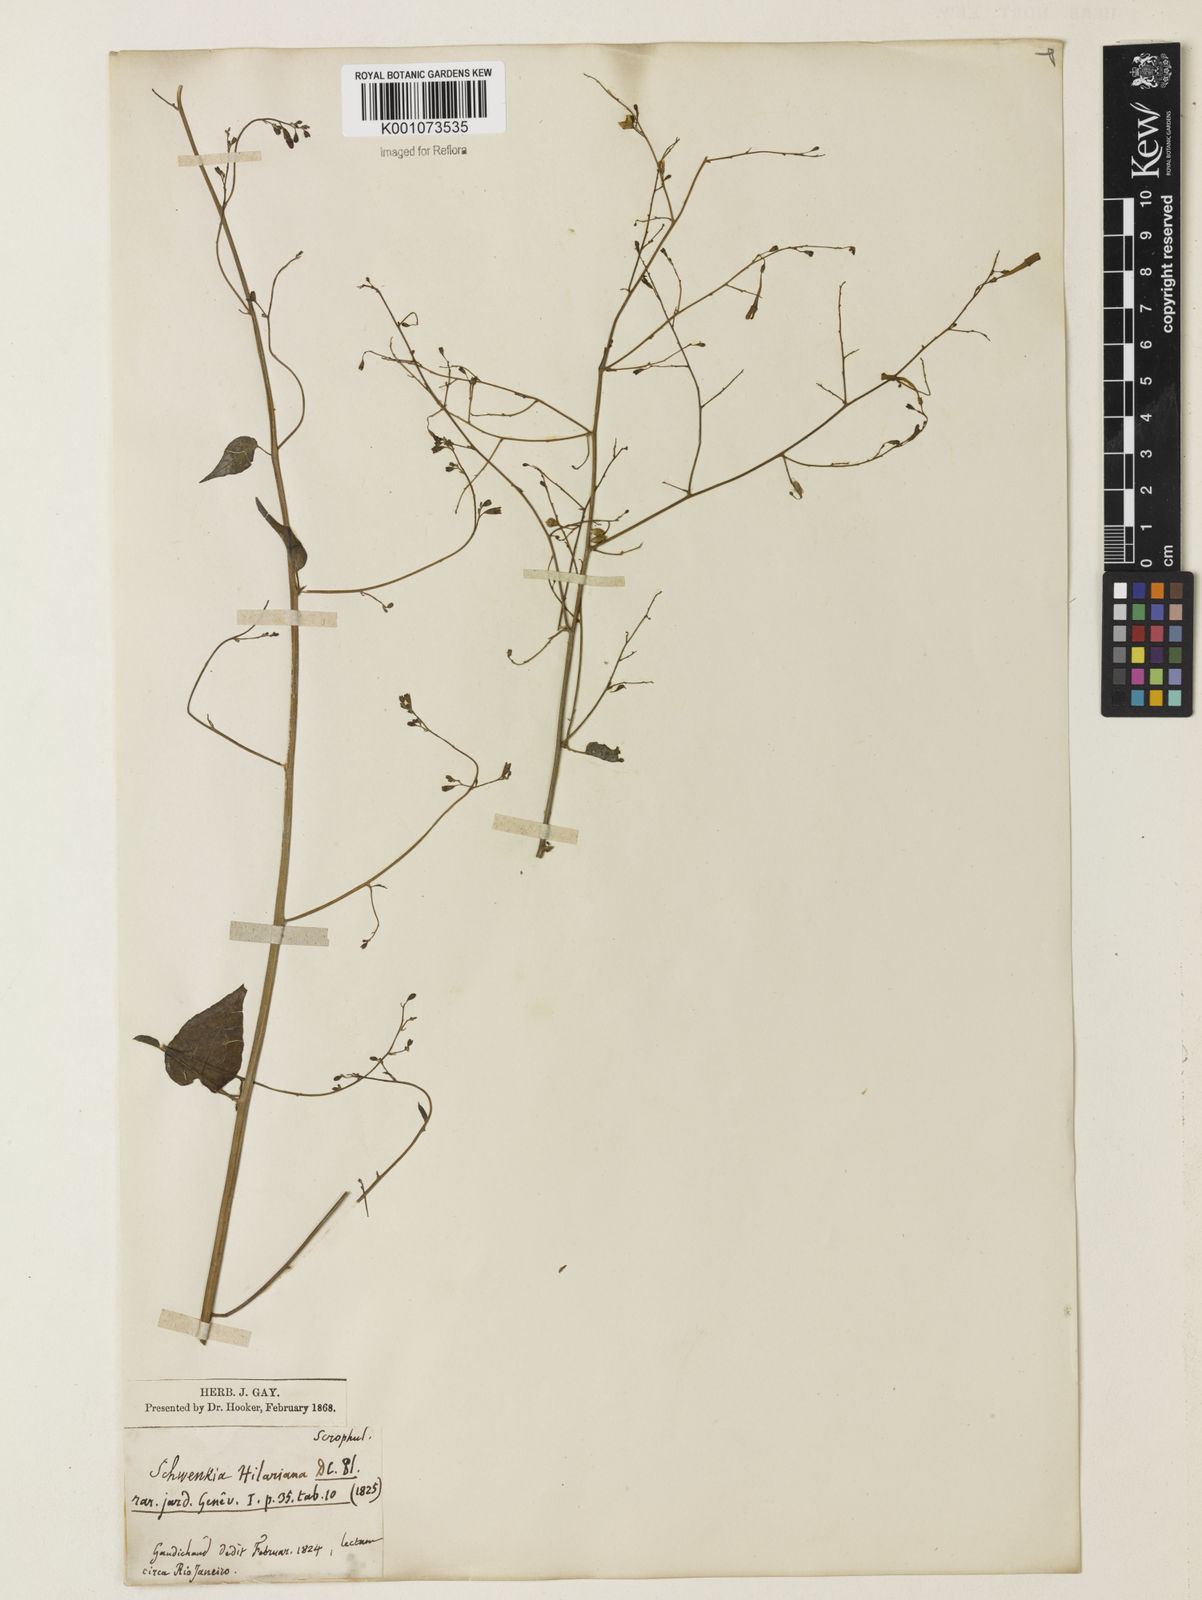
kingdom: Plantae
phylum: Tracheophyta
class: Magnoliopsida
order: Solanales
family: Solanaceae
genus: Schwenckia
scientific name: Schwenckia americana
